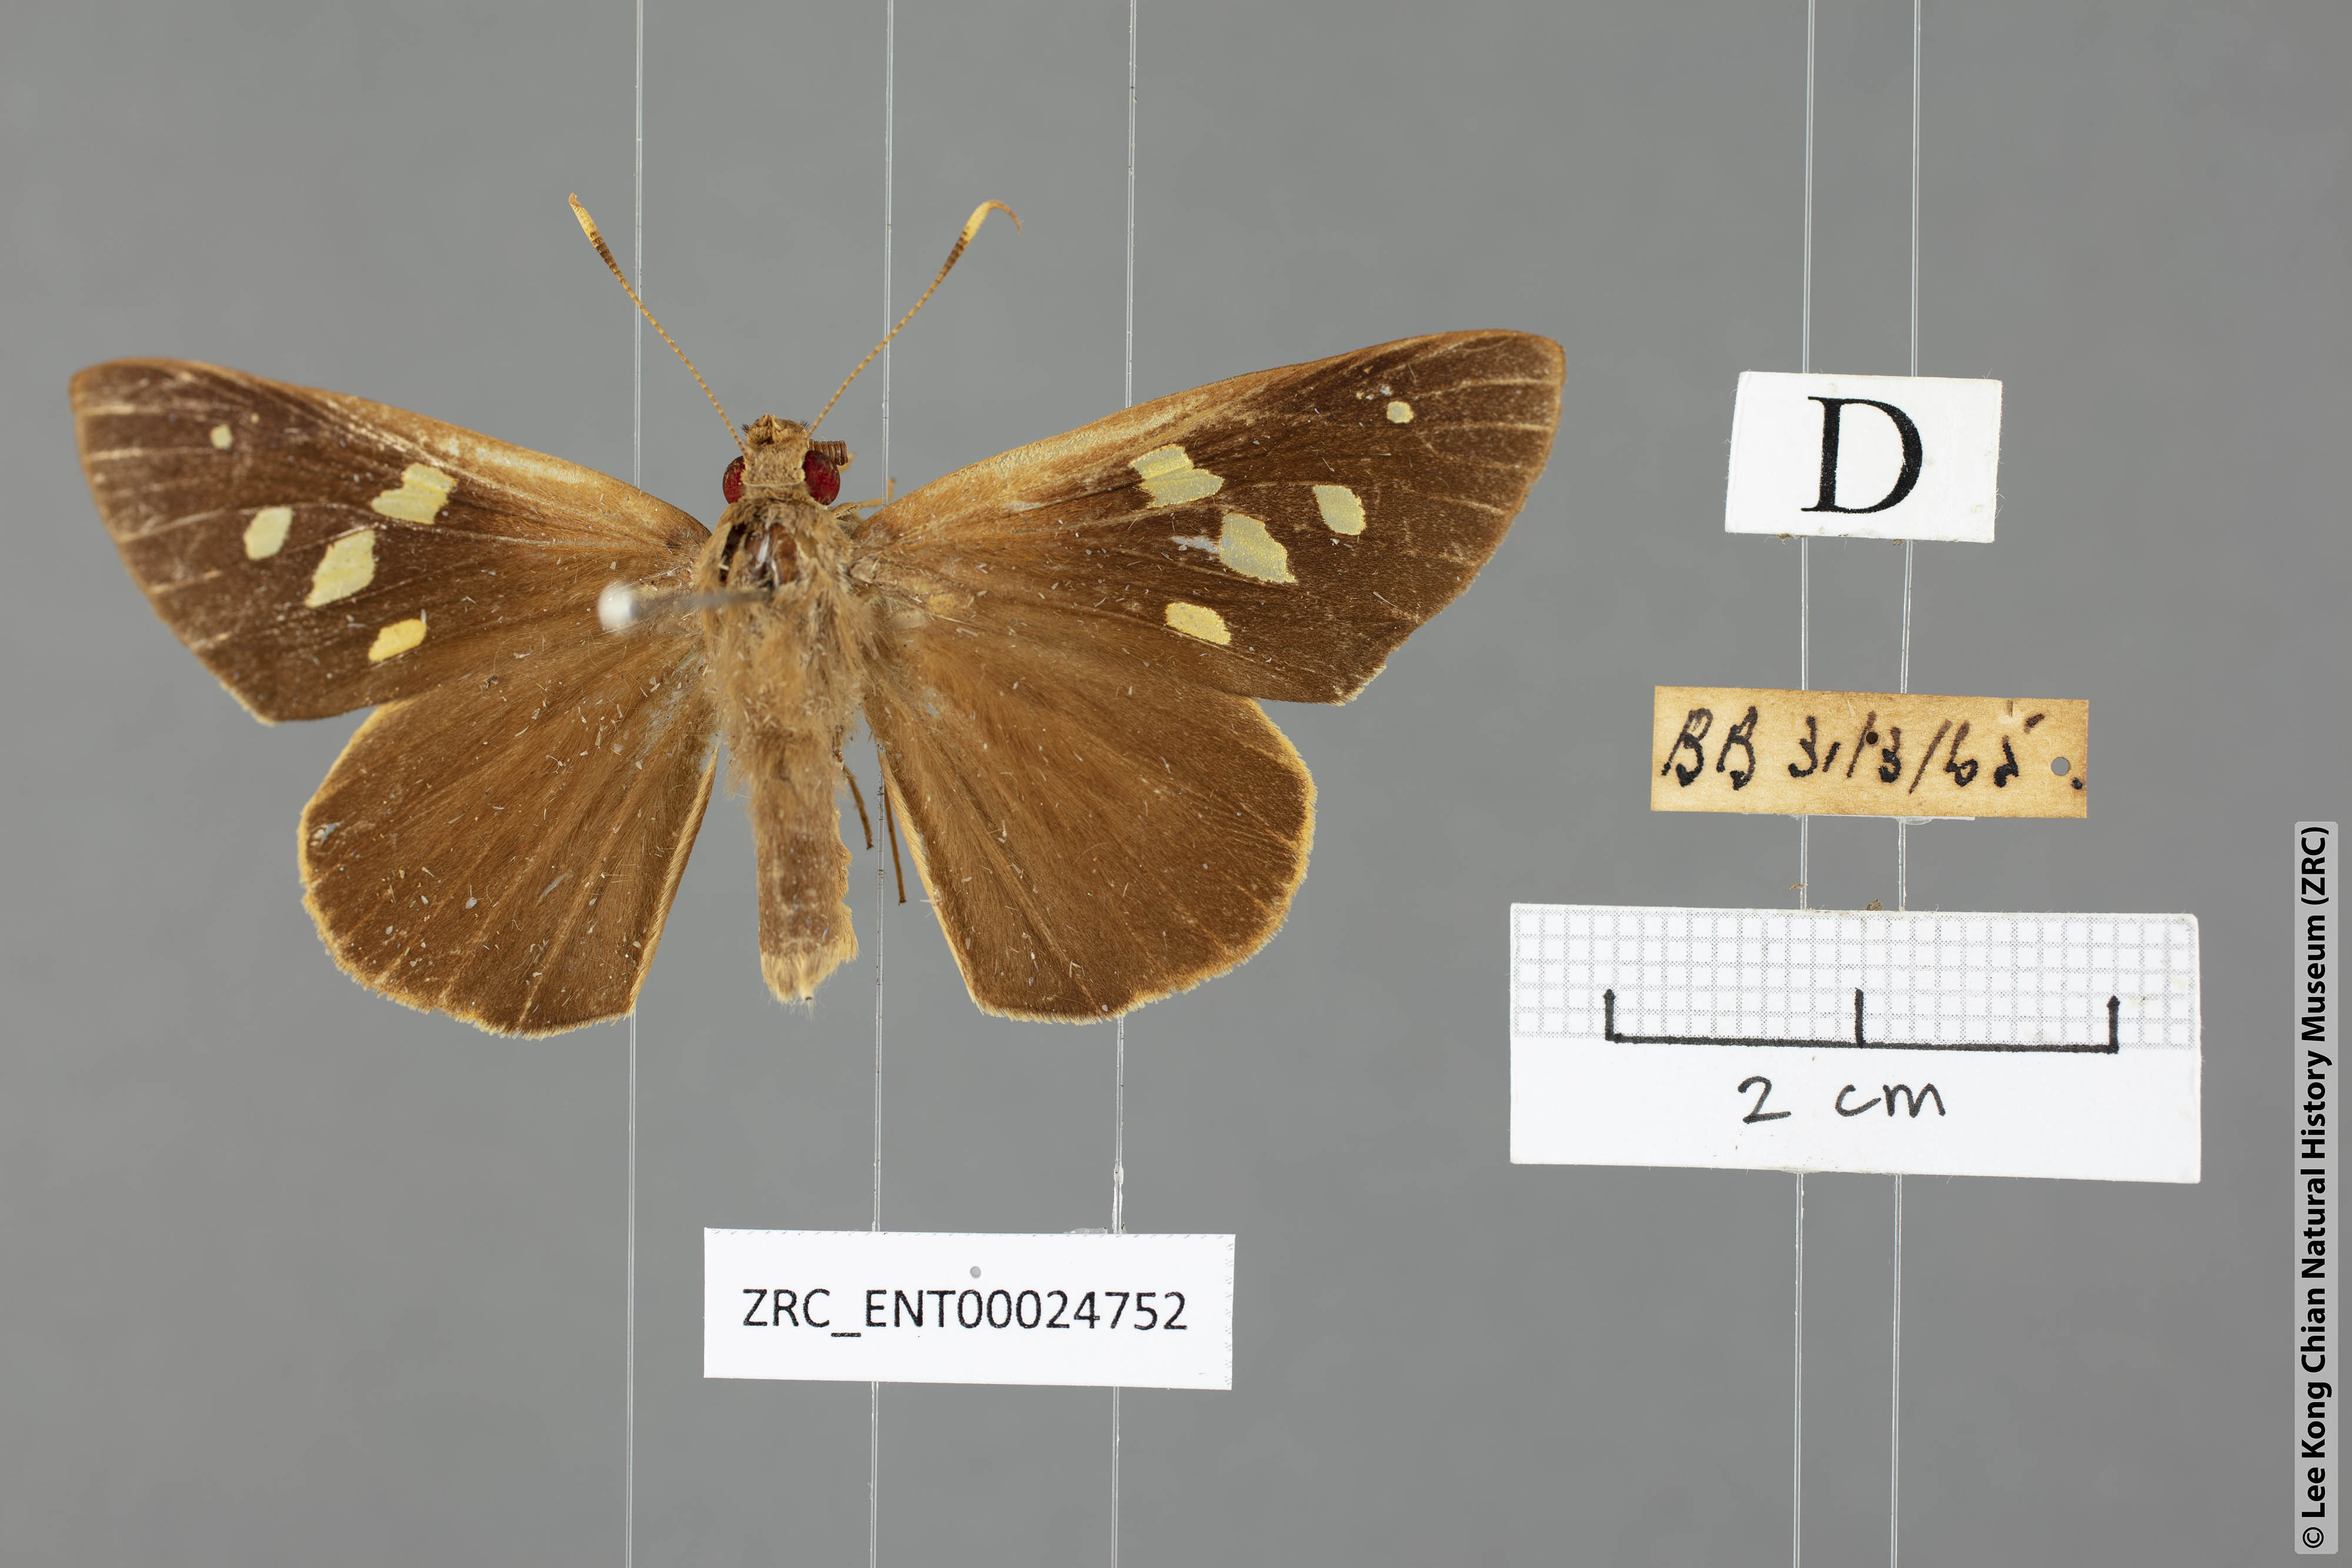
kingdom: Animalia
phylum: Arthropoda
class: Insecta
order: Lepidoptera
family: Hesperiidae
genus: Hidari
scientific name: Hidari irava
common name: Coconut skipper
